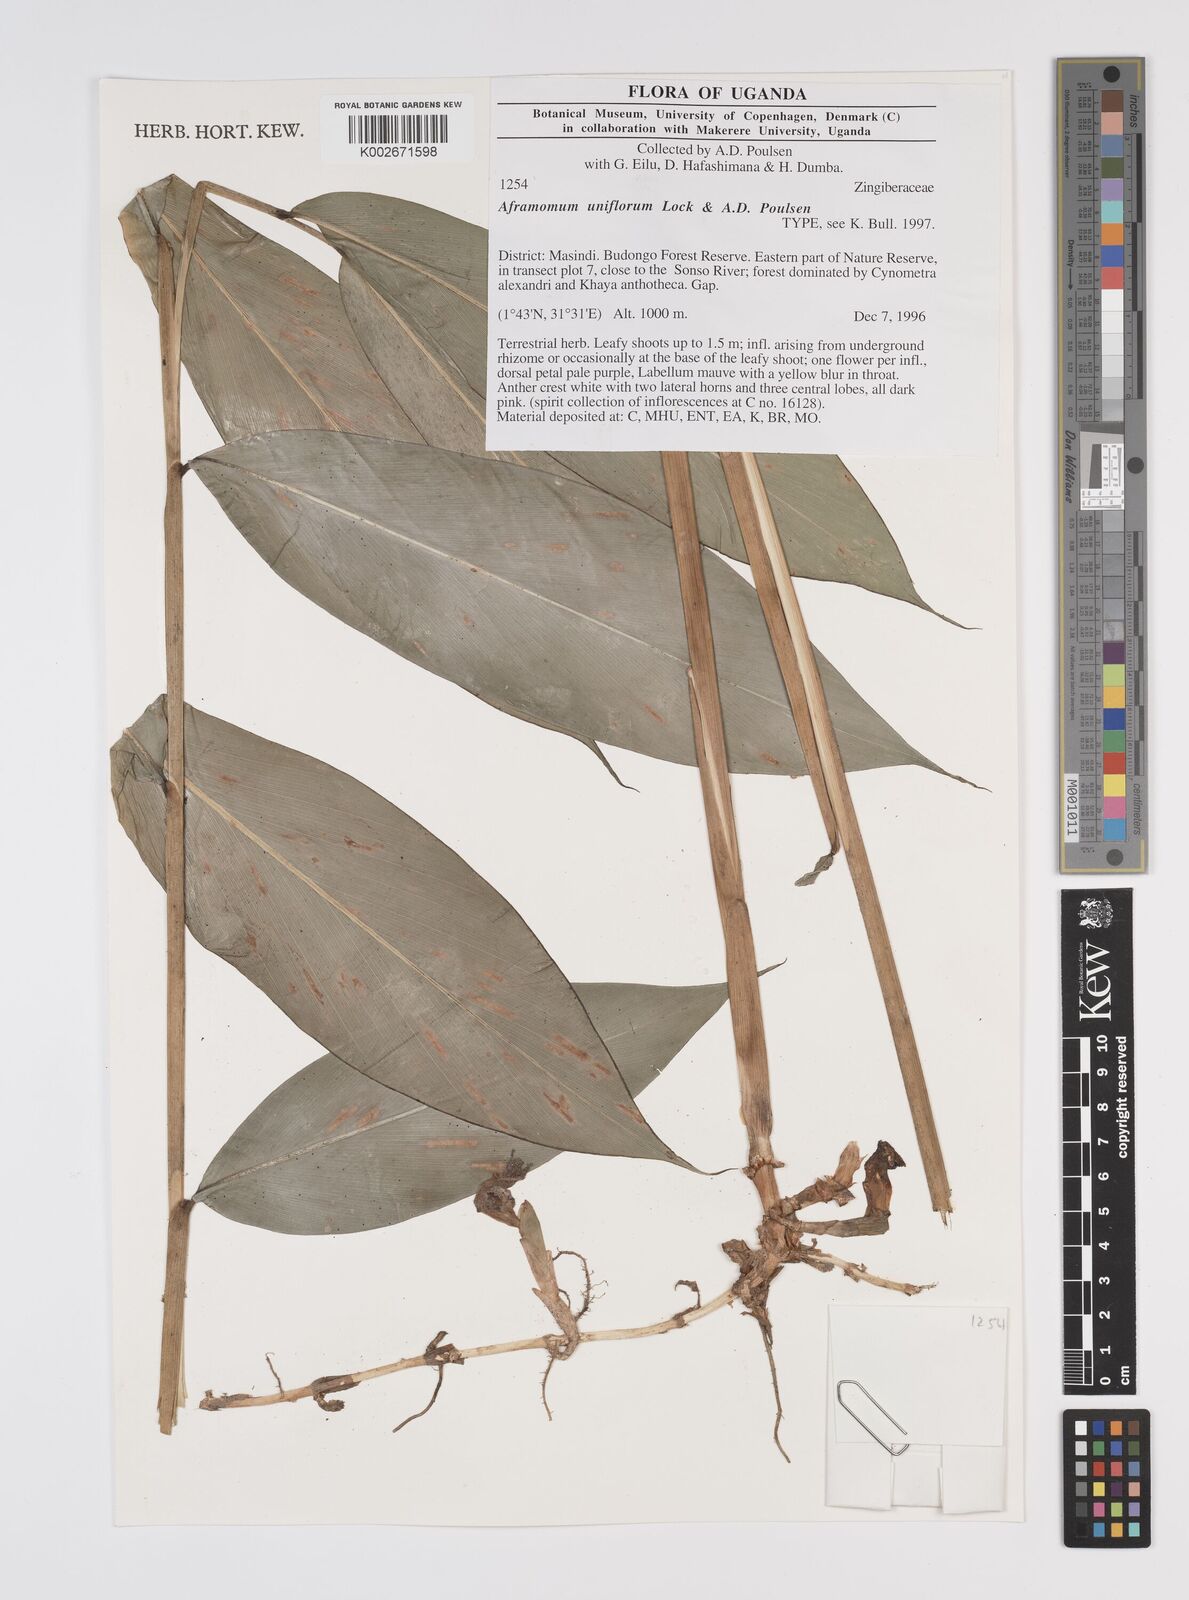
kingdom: Plantae
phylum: Tracheophyta
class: Liliopsida
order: Zingiberales
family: Zingiberaceae
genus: Aframomum
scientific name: Aframomum uniflorum
